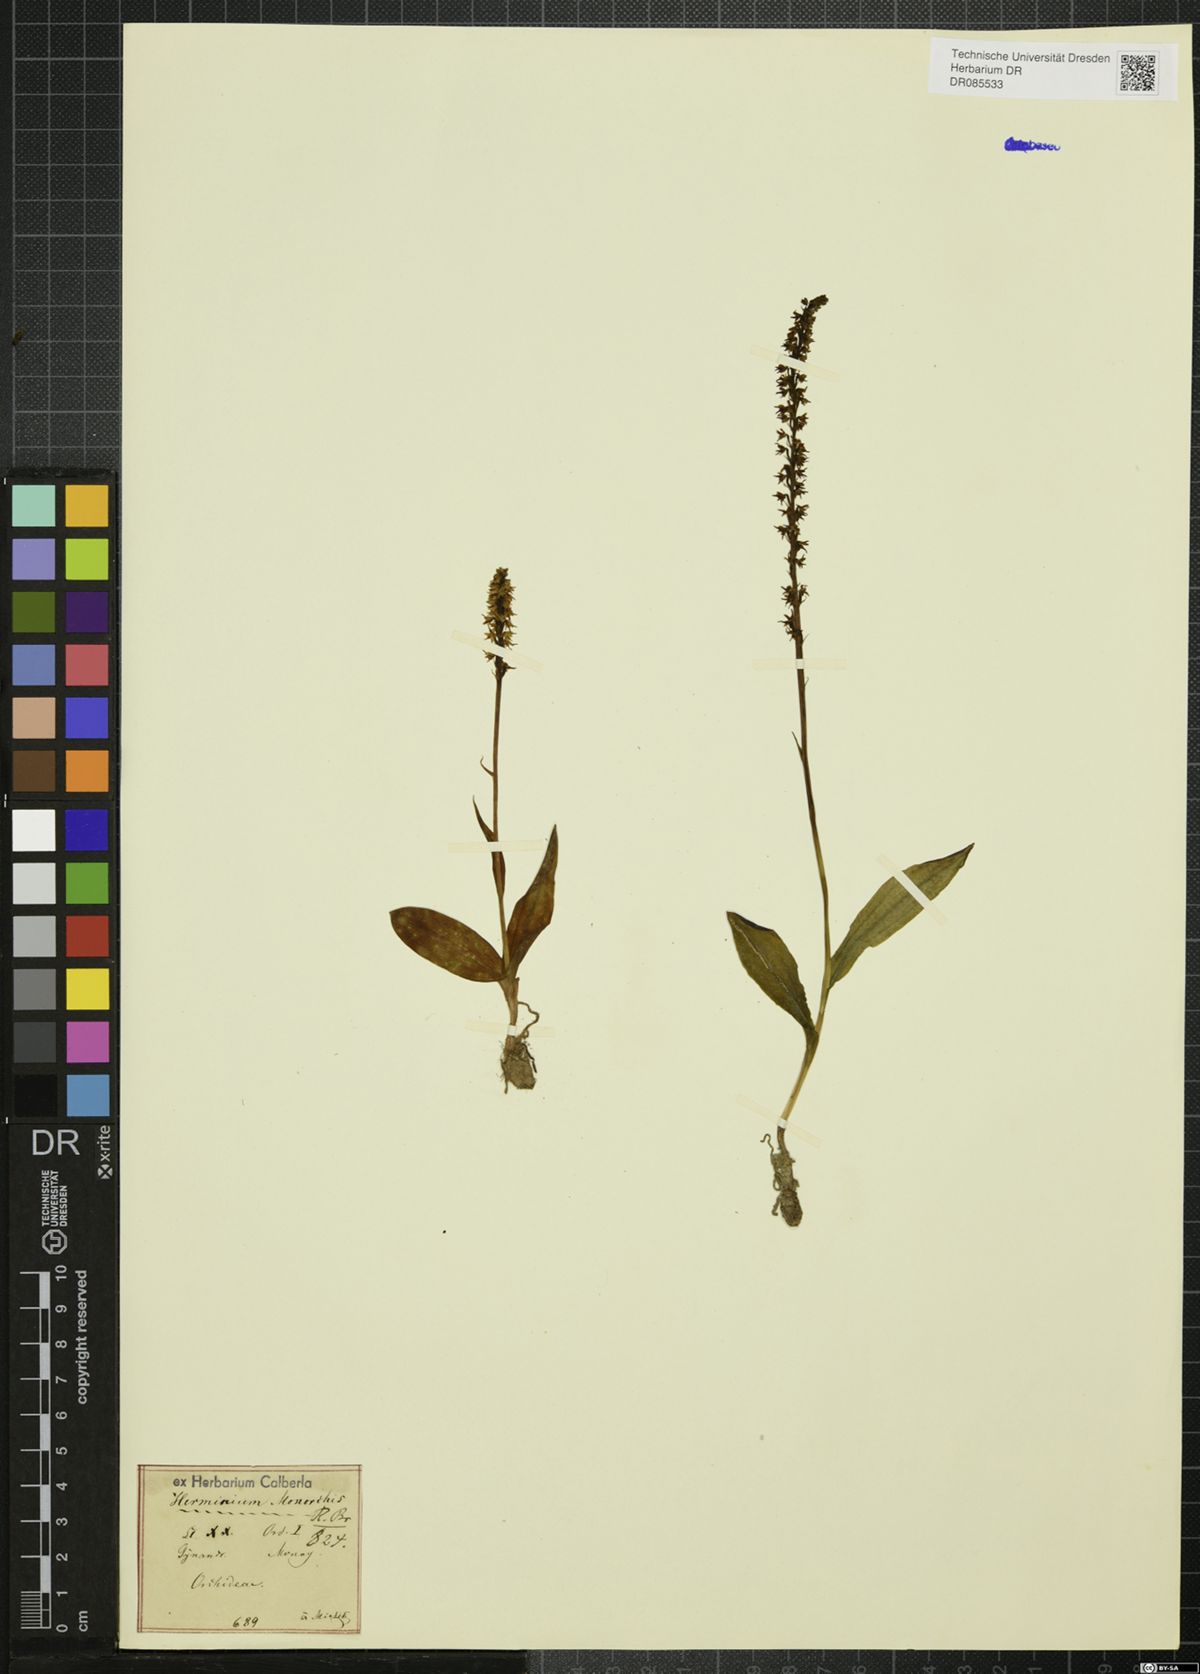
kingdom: Plantae
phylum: Tracheophyta
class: Liliopsida
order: Asparagales
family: Orchidaceae
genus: Herminium
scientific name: Herminium monorchis
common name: Musk orchid
